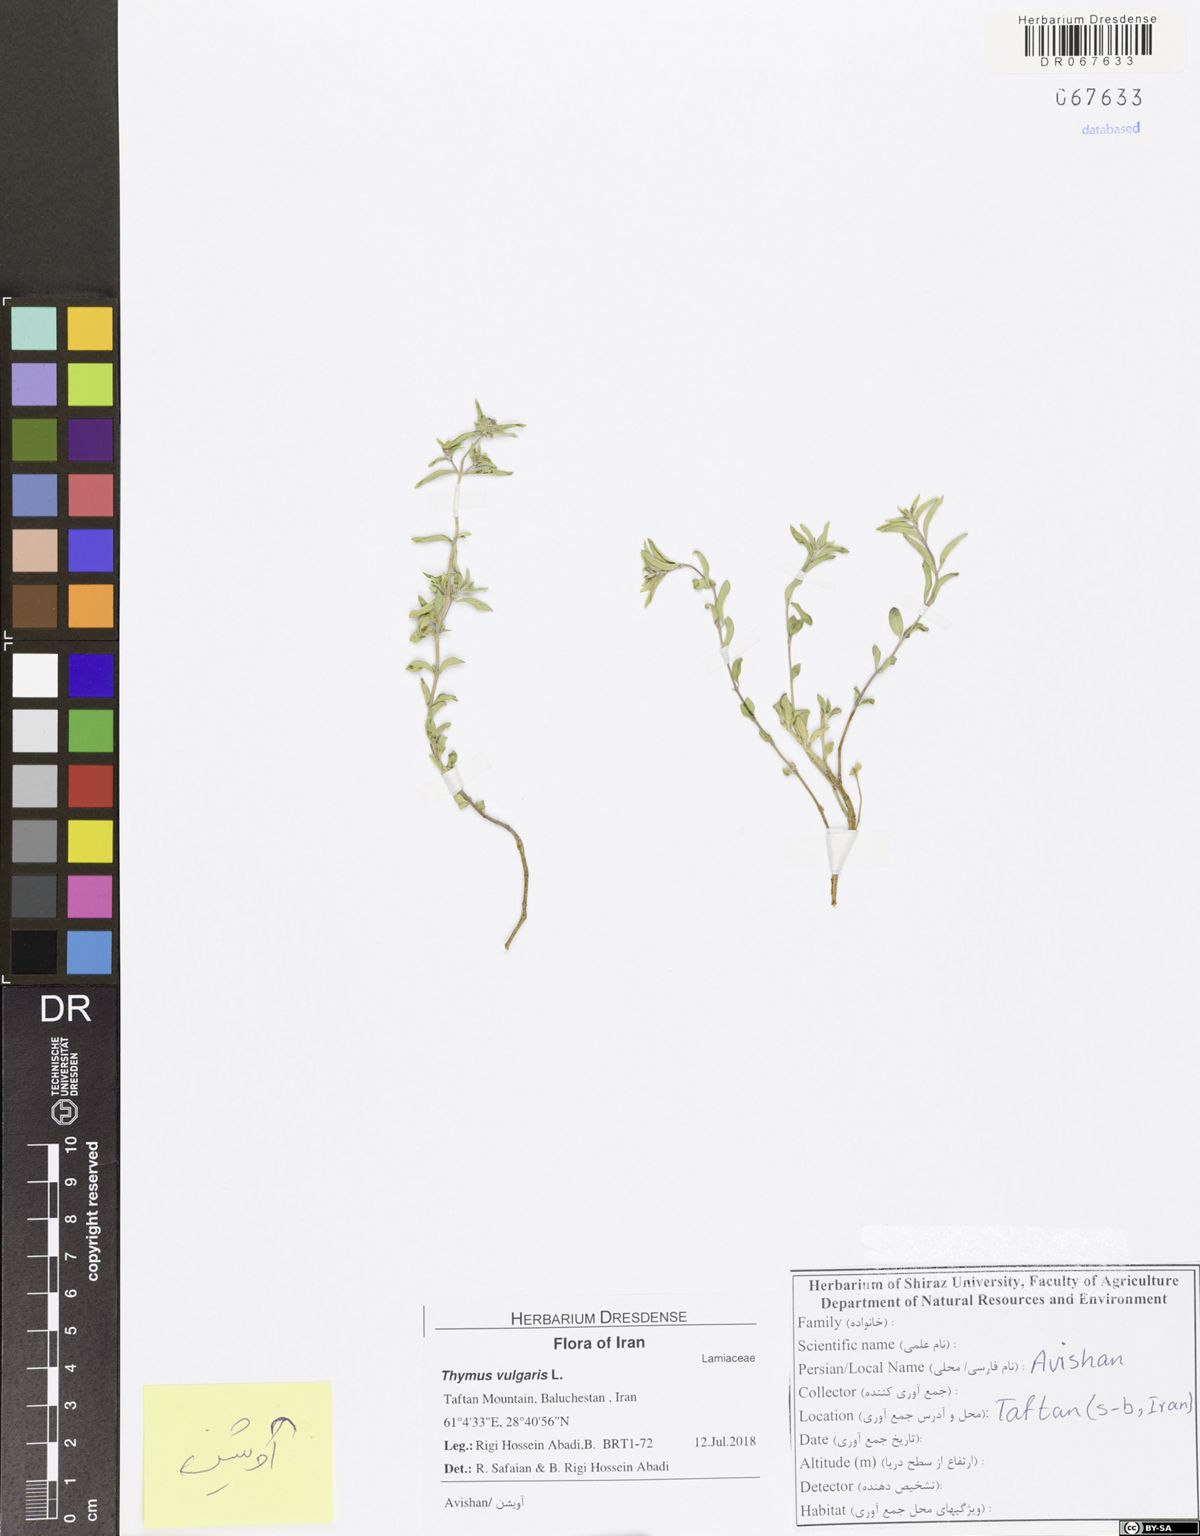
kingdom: Plantae
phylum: Tracheophyta
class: Magnoliopsida
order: Lamiales
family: Lamiaceae
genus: Thymus
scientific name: Thymus vulgaris
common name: Garden thyme
